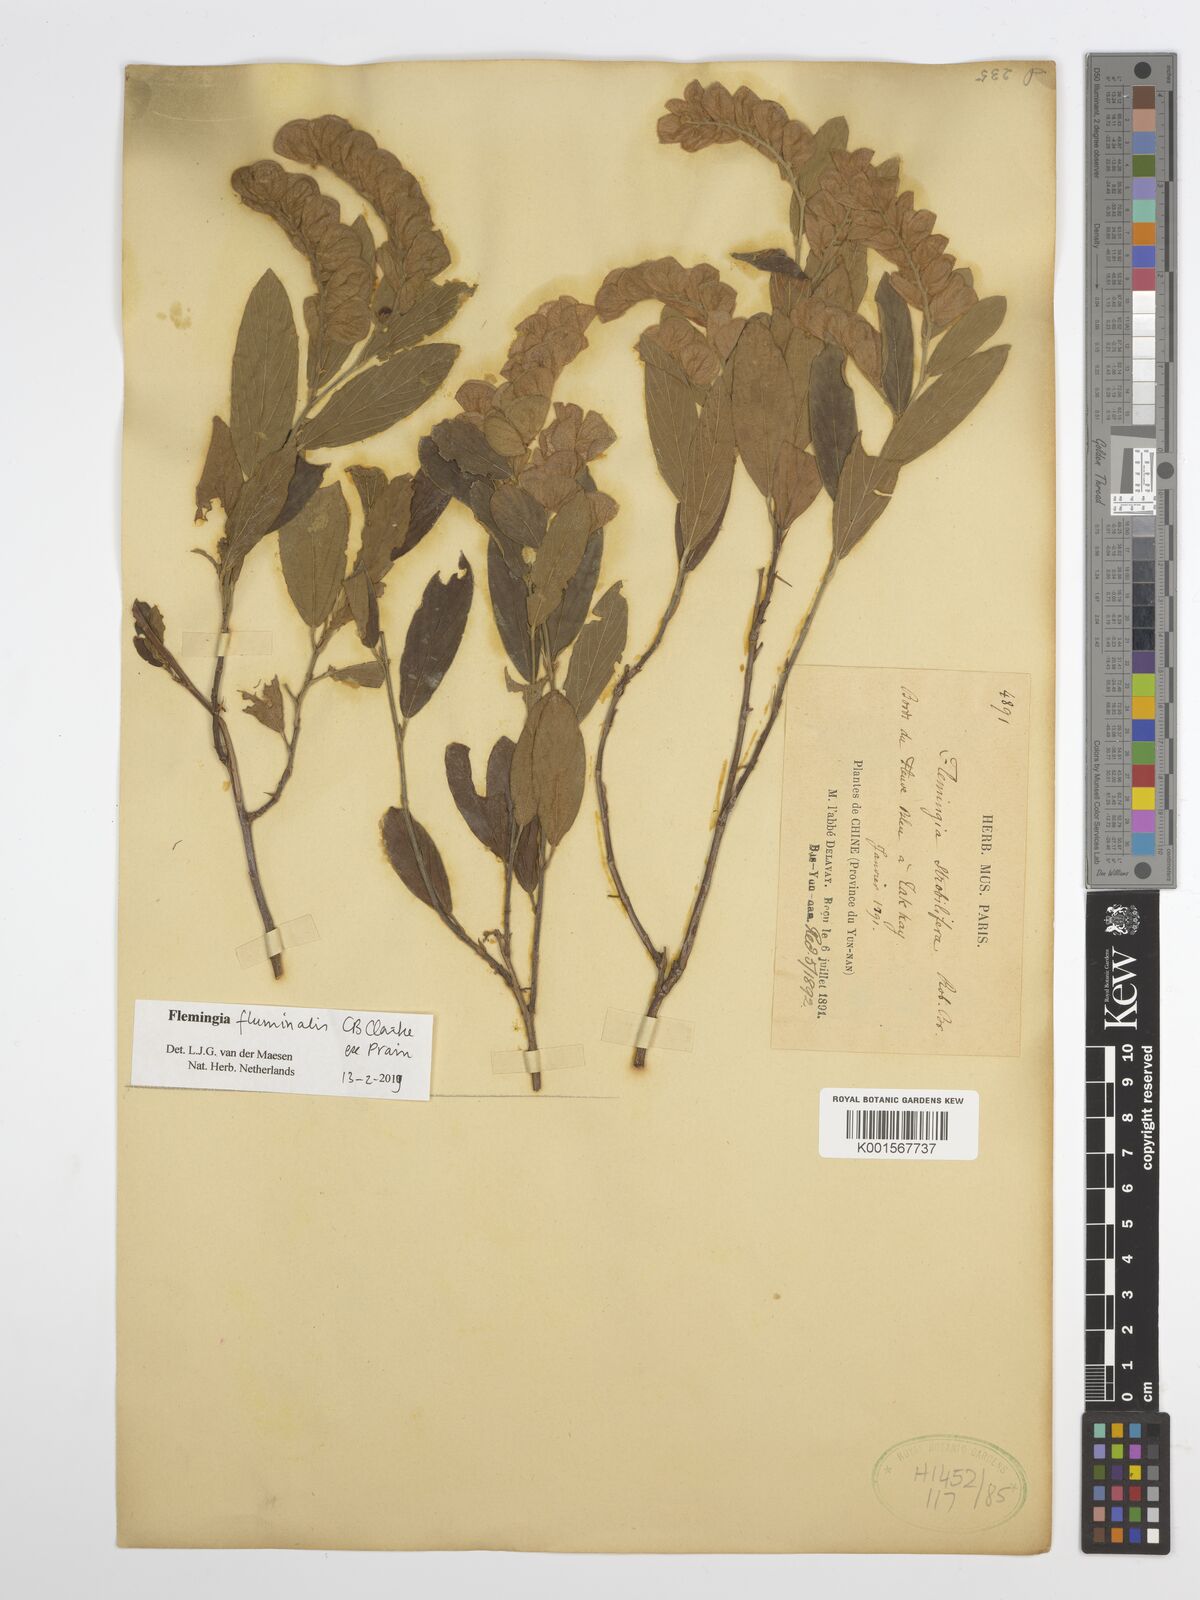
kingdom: Plantae
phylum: Tracheophyta
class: Magnoliopsida
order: Fabales
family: Fabaceae
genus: Flemingia
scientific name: Flemingia fluminalis
